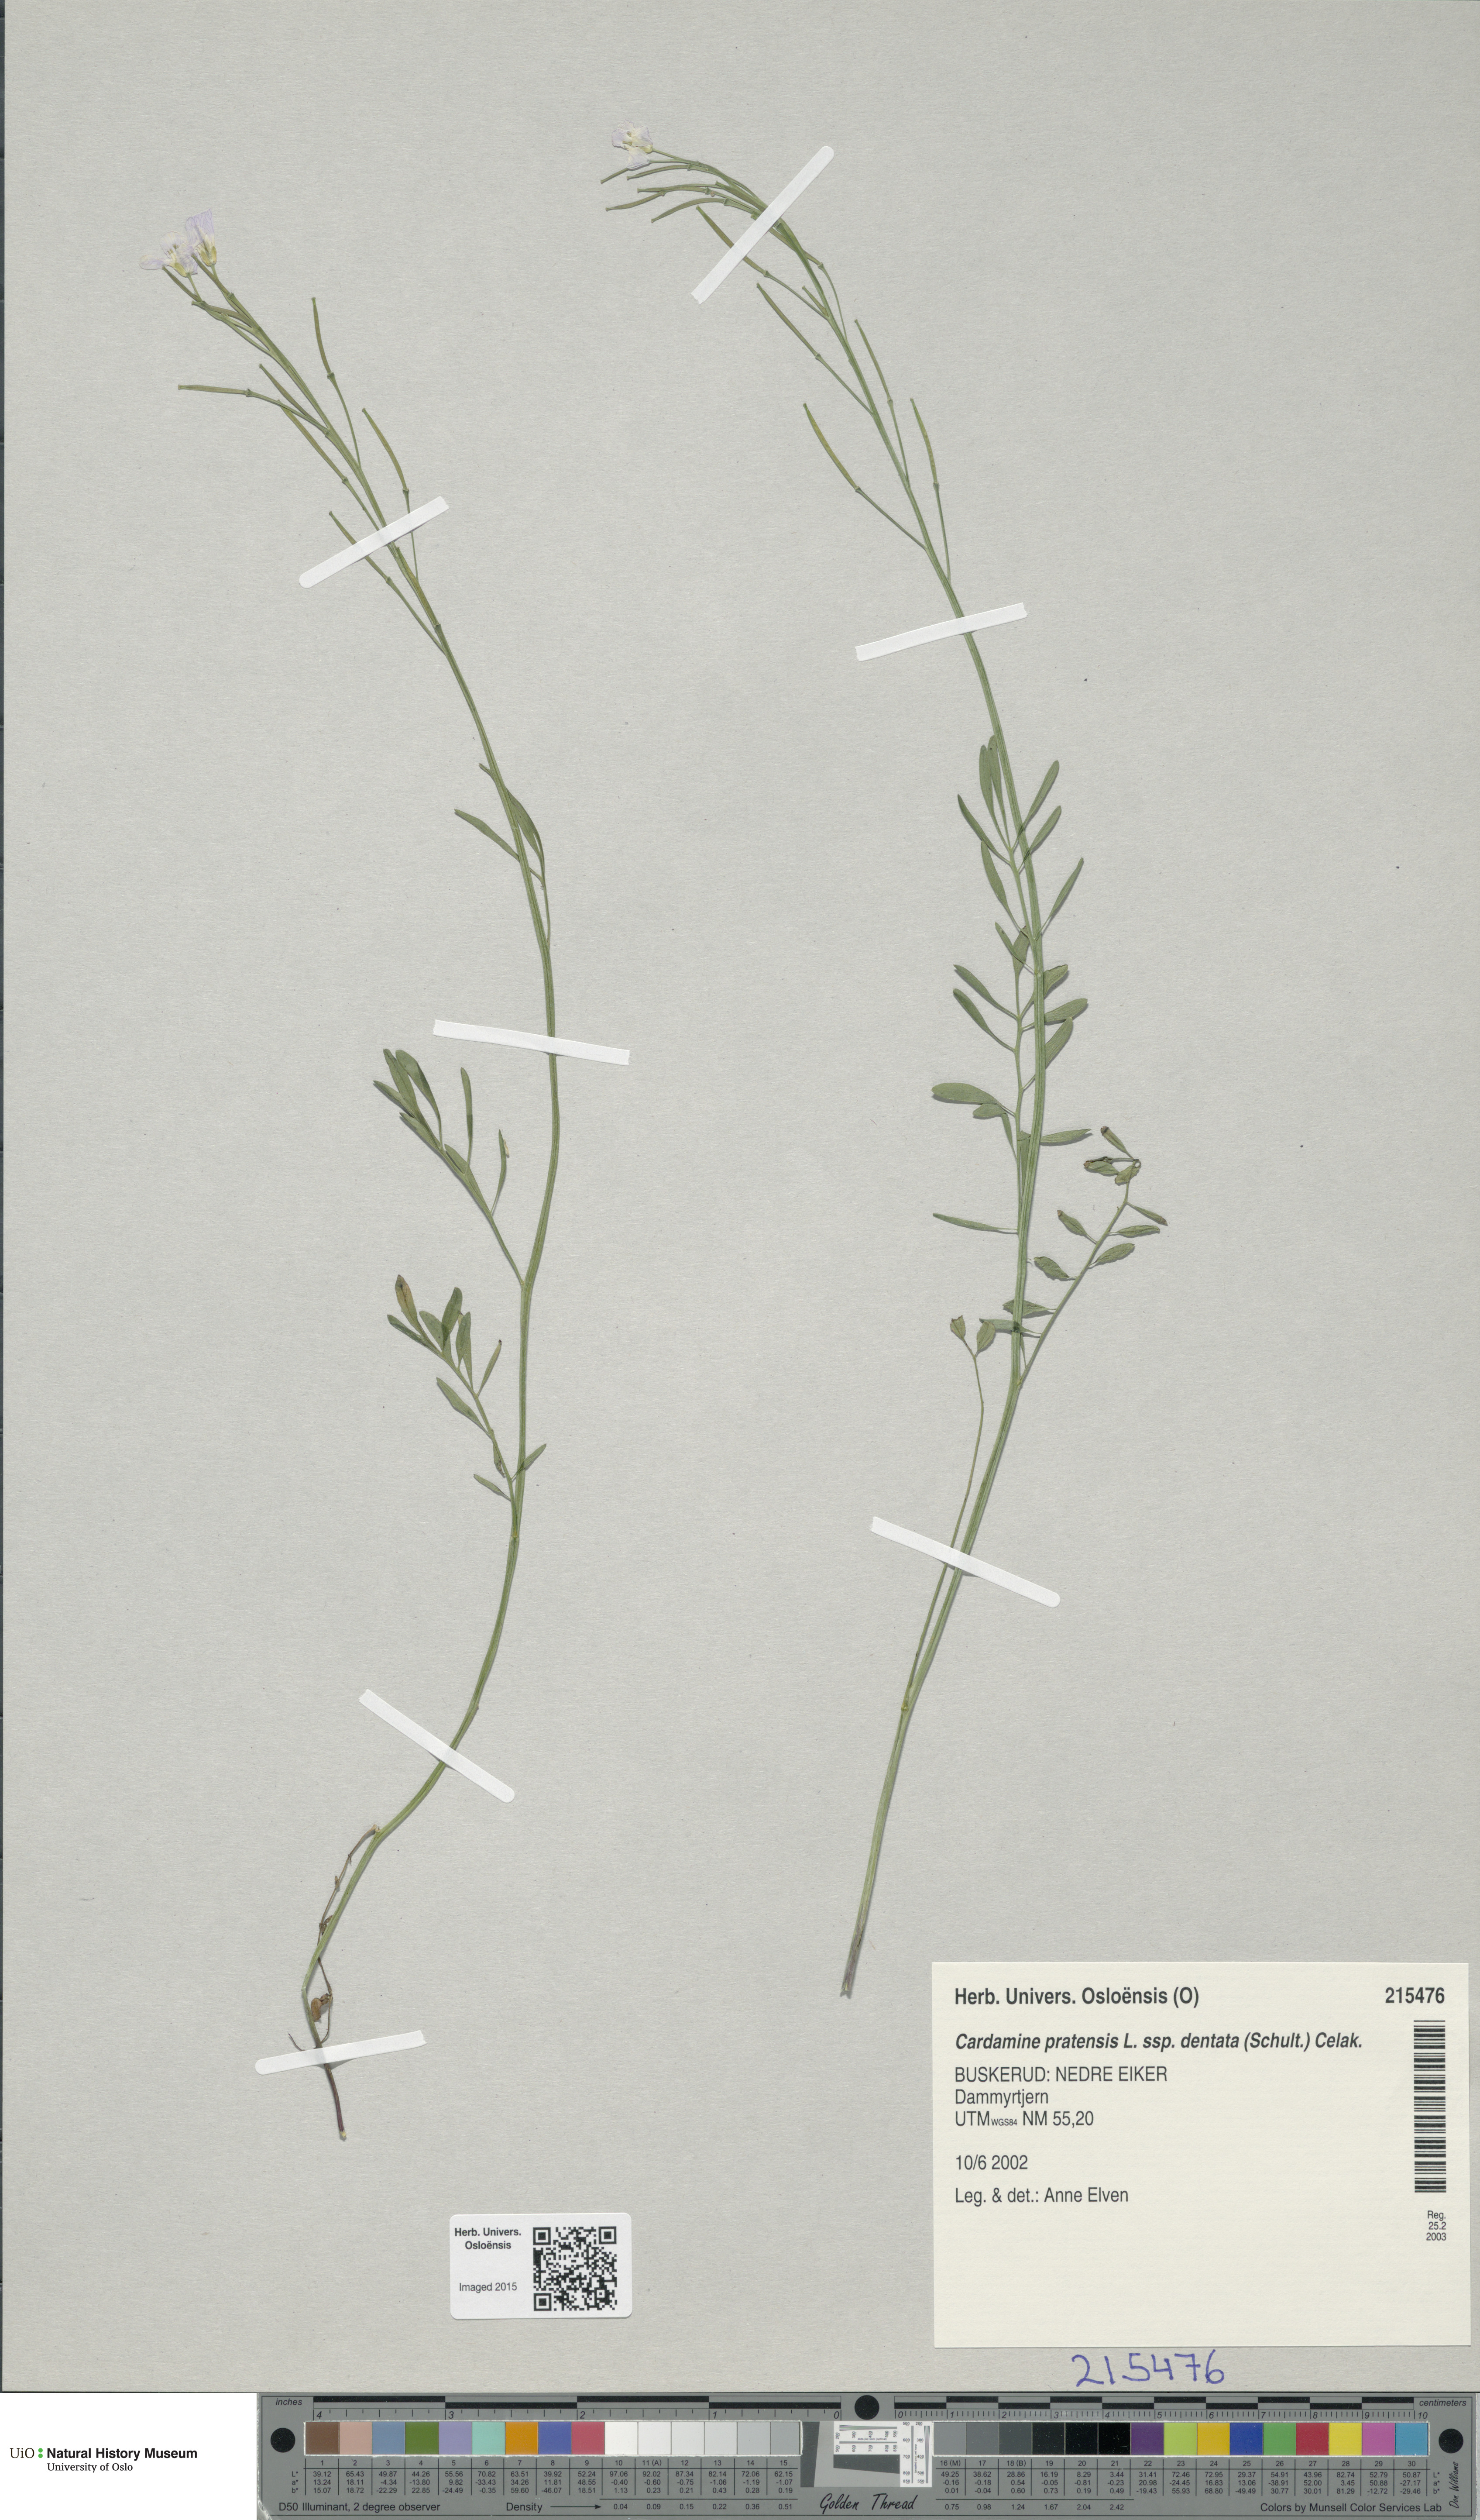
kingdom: Plantae
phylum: Tracheophyta
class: Magnoliopsida
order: Brassicales
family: Brassicaceae
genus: Cardamine
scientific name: Cardamine dentata
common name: Toothed bittercress
